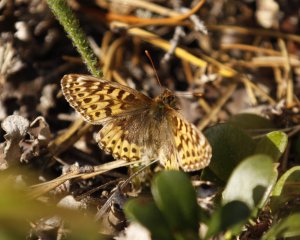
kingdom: Animalia
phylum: Arthropoda
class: Insecta
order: Lepidoptera
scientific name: Lepidoptera
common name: Butterflies
